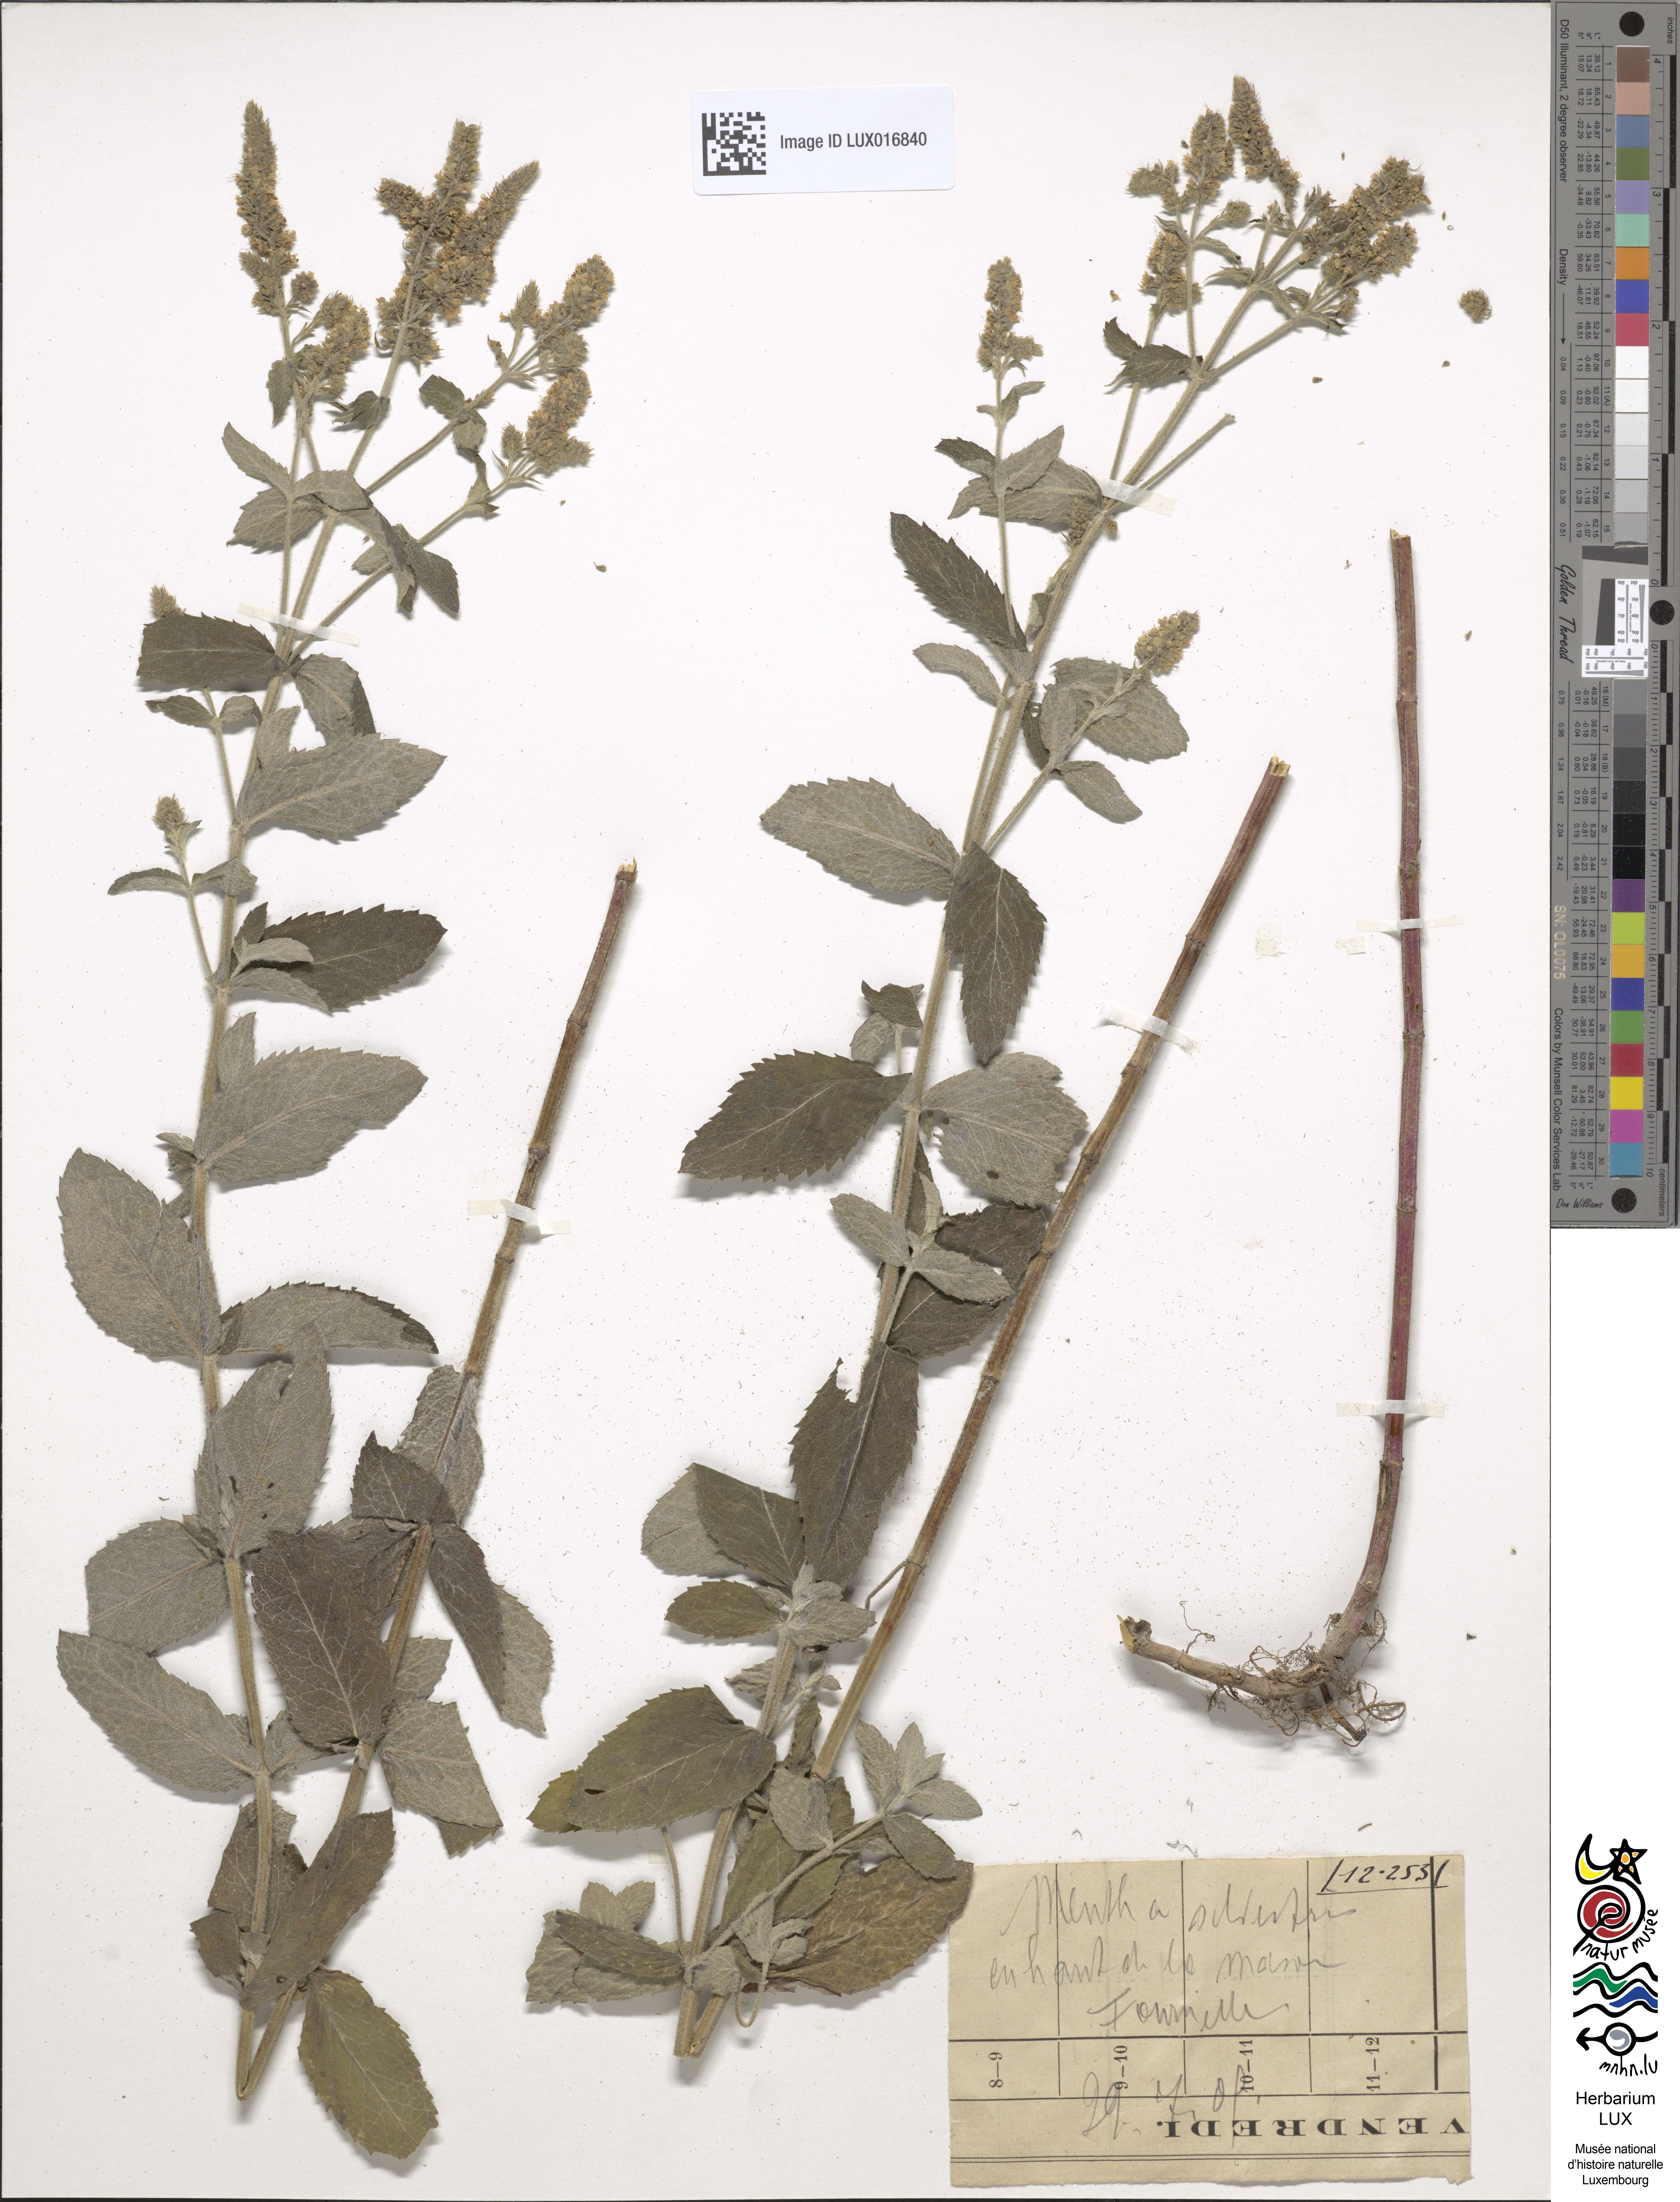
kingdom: Plantae
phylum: Tracheophyta
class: Magnoliopsida
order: Lamiales
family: Lamiaceae
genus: Mentha
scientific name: Mentha longifolia
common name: Horse mint
